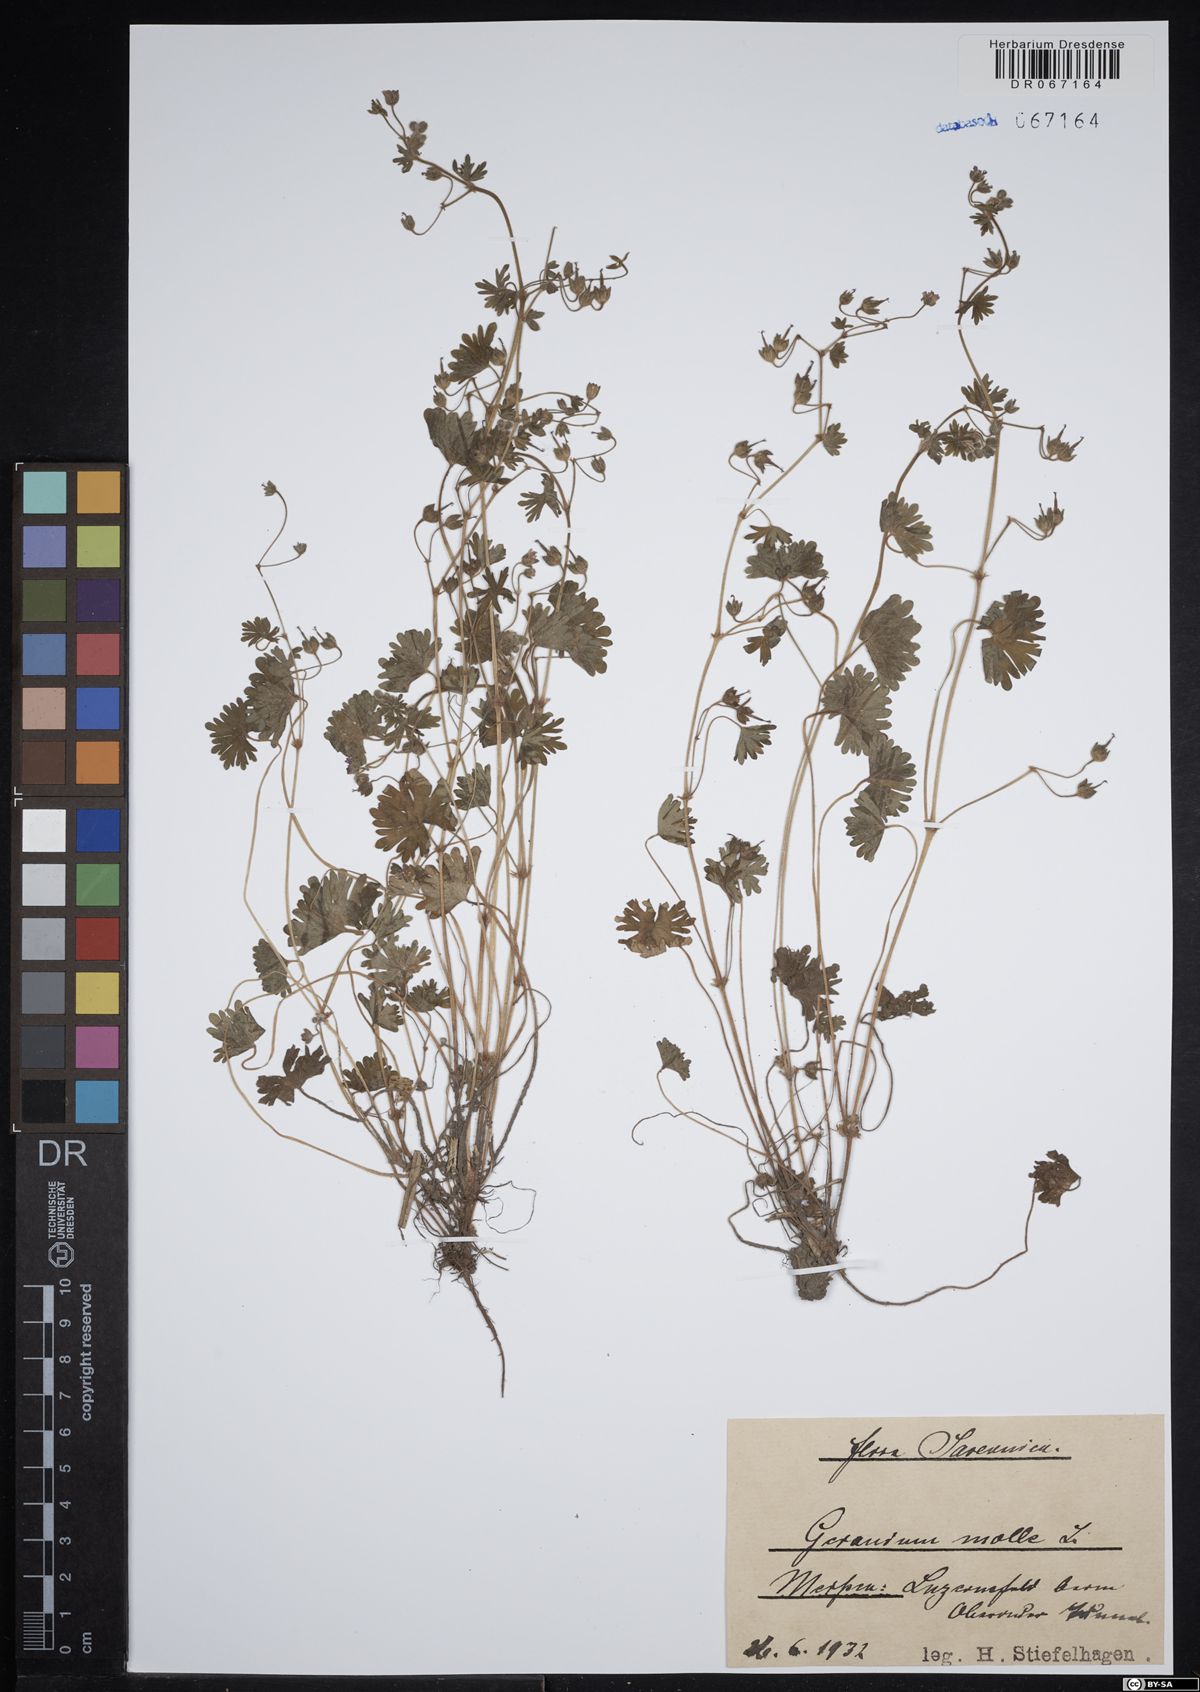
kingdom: Plantae
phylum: Tracheophyta
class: Magnoliopsida
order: Geraniales
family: Geraniaceae
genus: Geranium
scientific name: Geranium molle
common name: Dove's-foot crane's-bill
